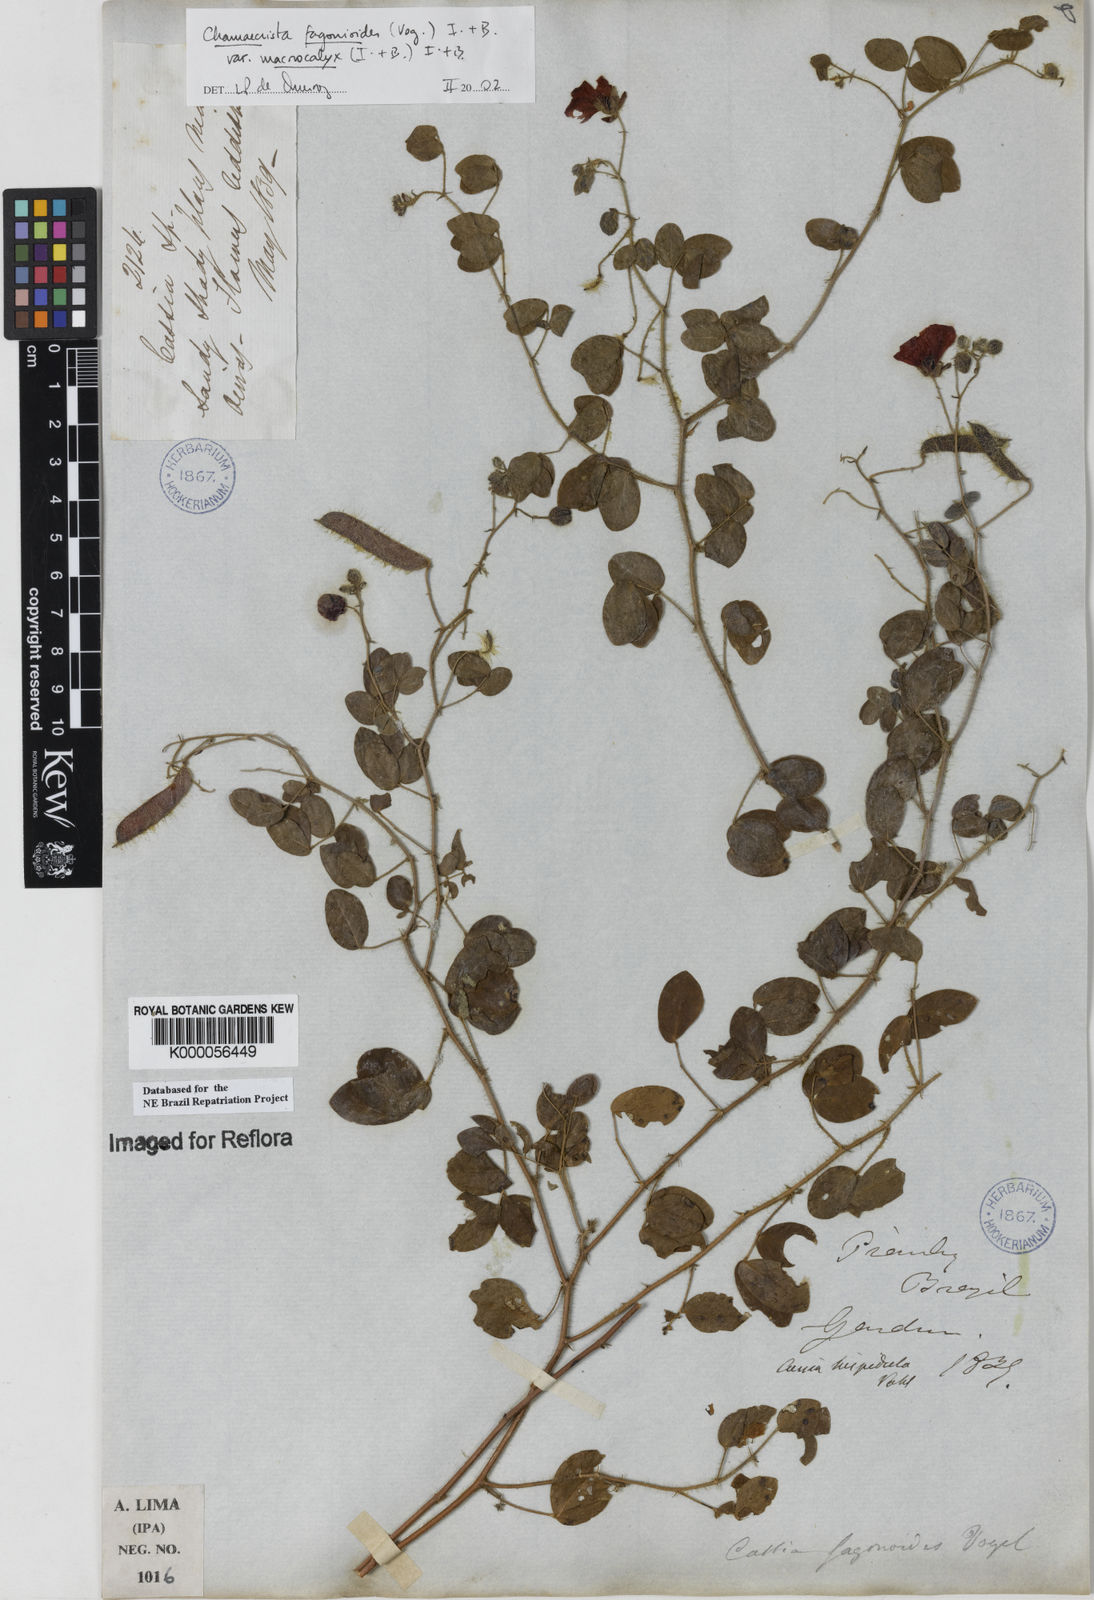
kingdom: Plantae
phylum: Tracheophyta
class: Magnoliopsida
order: Fabales
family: Fabaceae
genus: Chamaecrista
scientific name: Chamaecrista fagonioides
